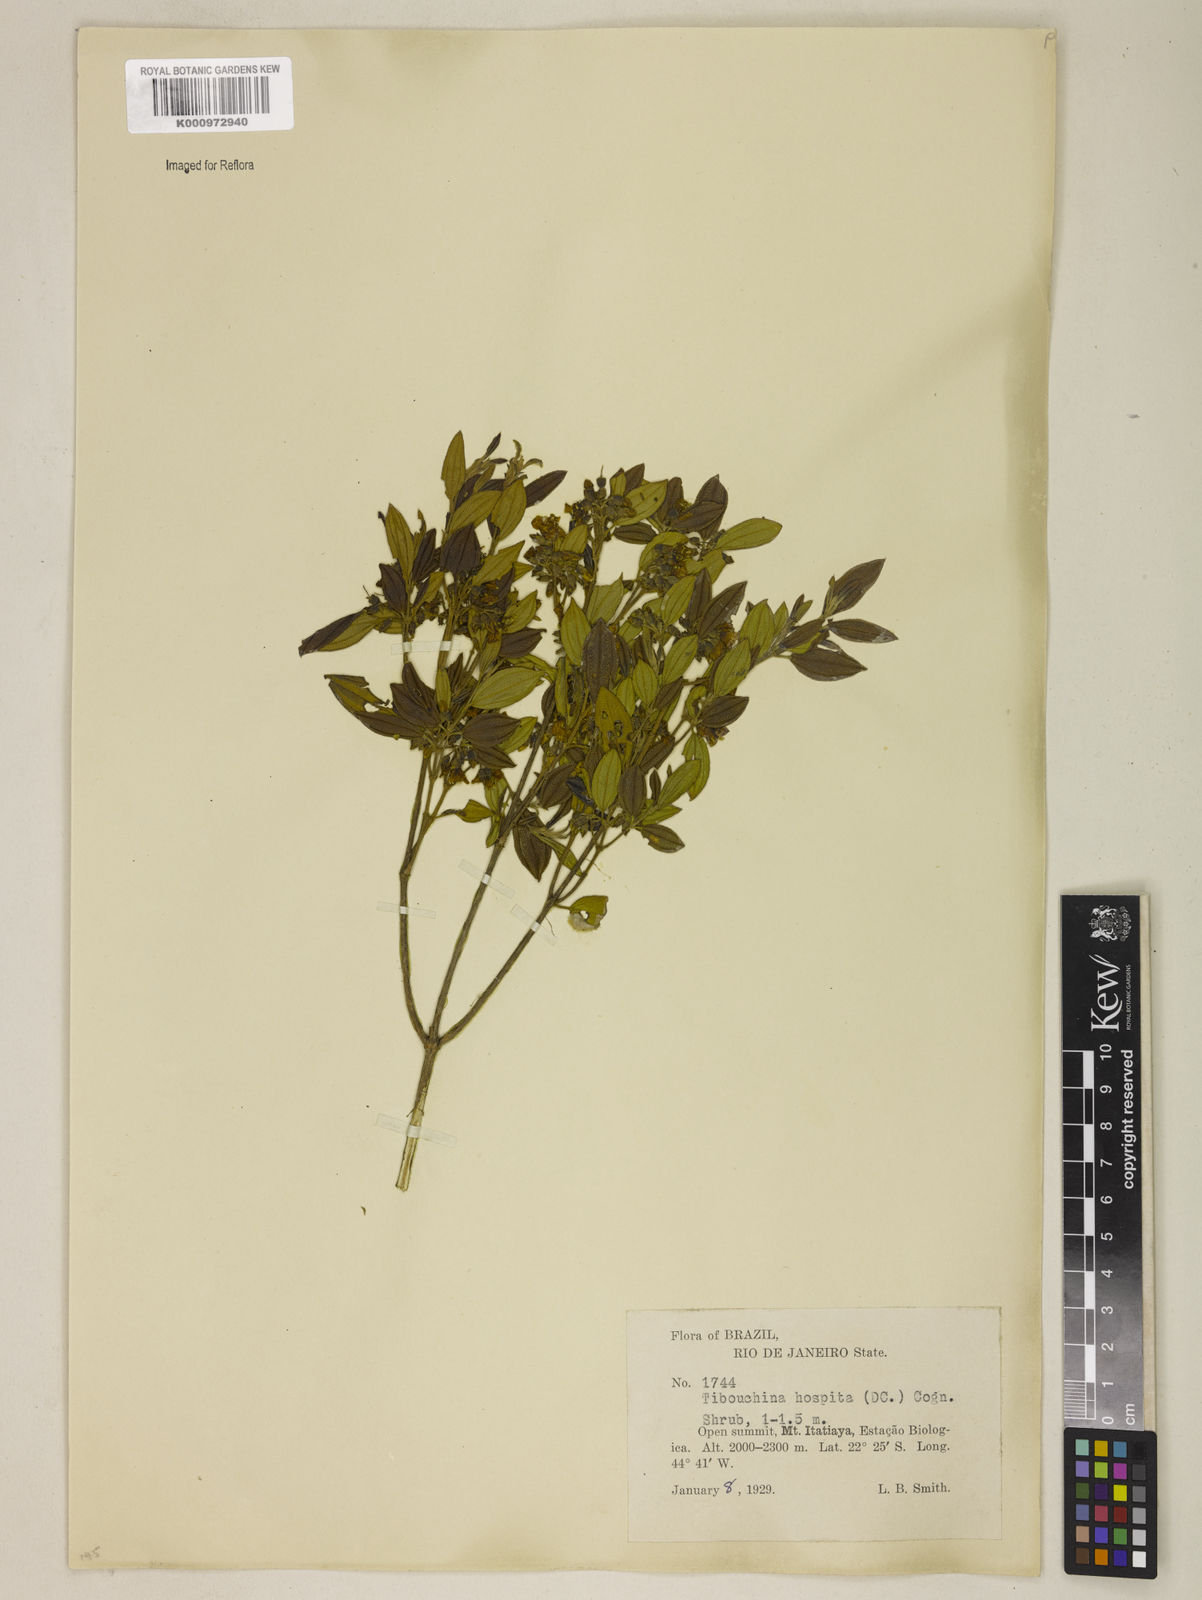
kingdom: Plantae
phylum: Tracheophyta
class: Magnoliopsida
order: Myrtales
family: Melastomataceae
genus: Pleroma
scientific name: Pleroma hospitum
